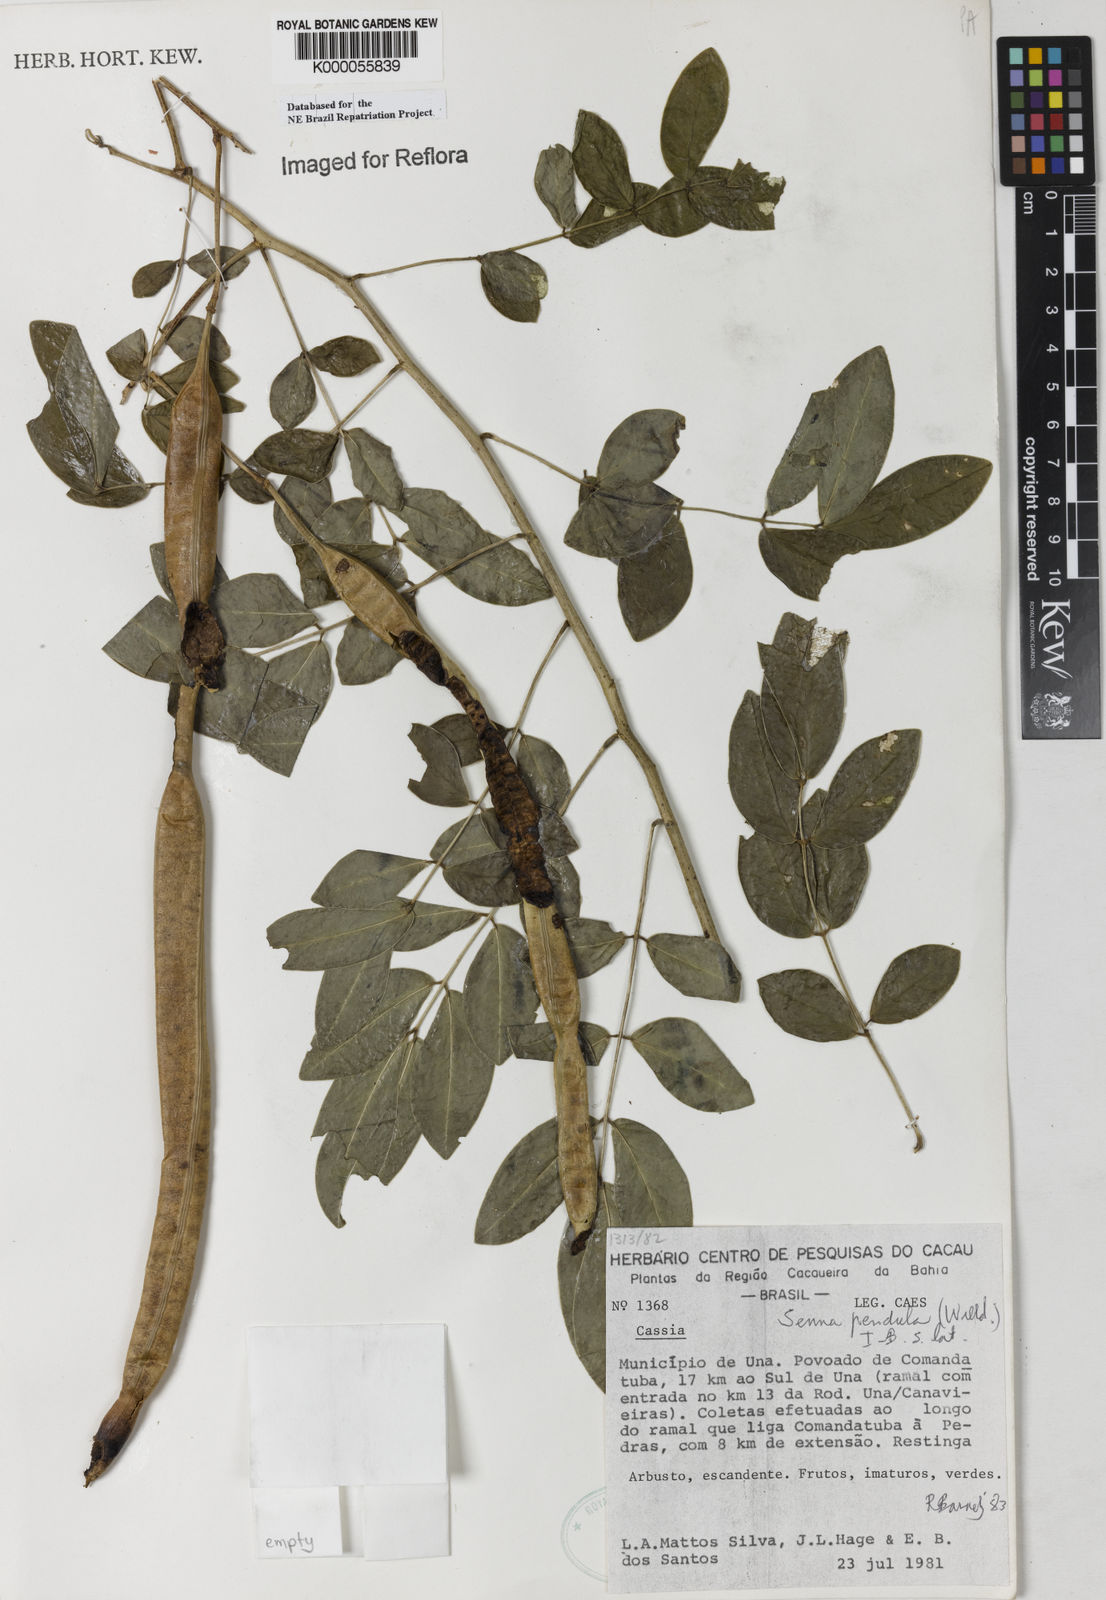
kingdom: Plantae
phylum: Tracheophyta
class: Magnoliopsida
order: Fabales
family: Fabaceae
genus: Senna
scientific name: Senna pendula
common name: Easter cassia
